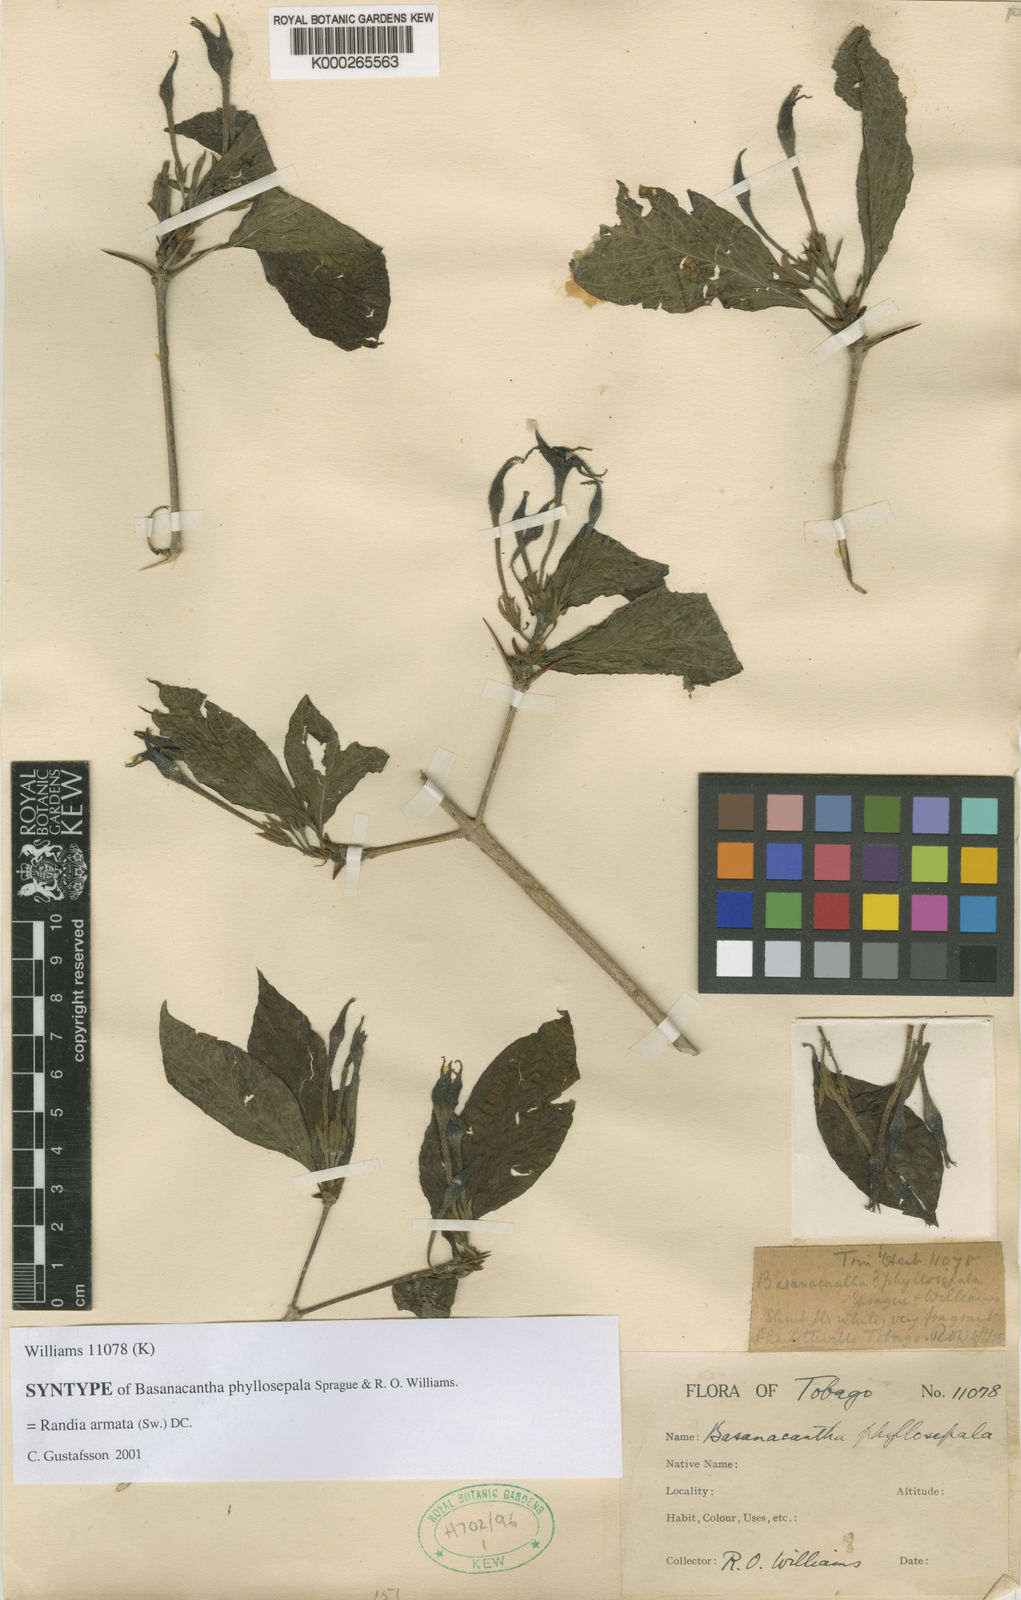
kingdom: Plantae
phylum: Tracheophyta
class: Magnoliopsida
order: Gentianales
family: Rubiaceae
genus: Randia
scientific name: Randia armata
